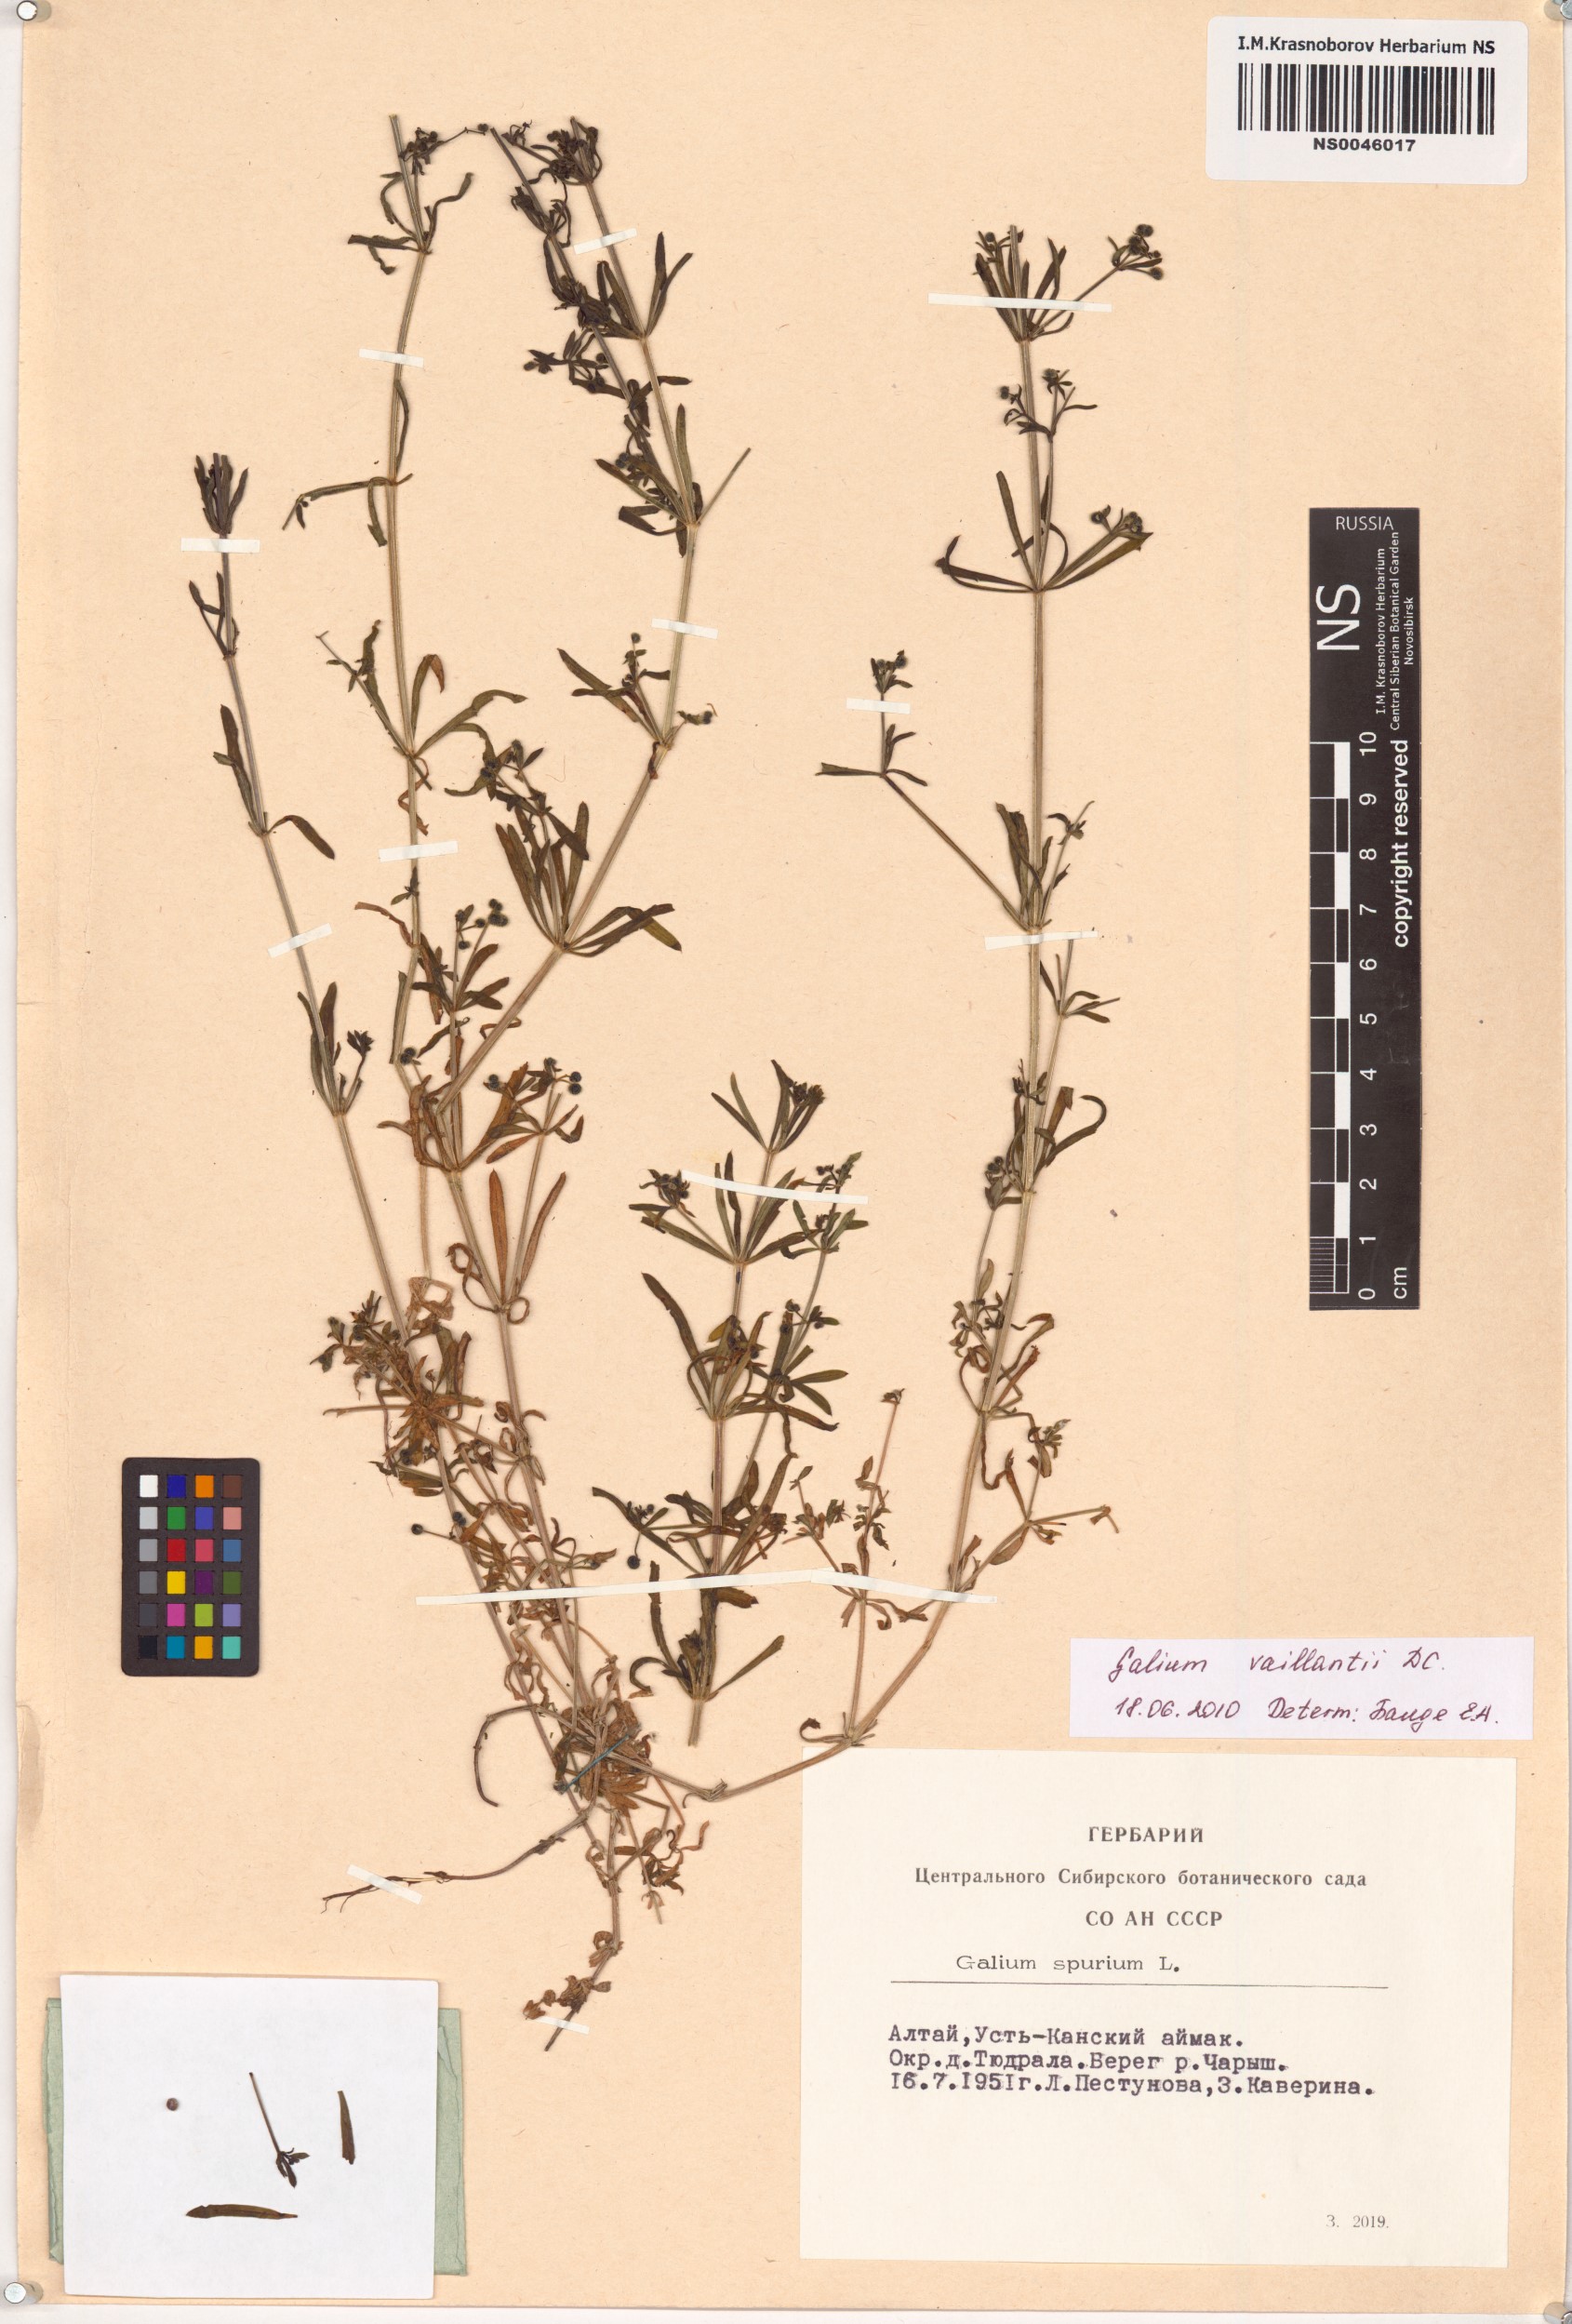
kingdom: Plantae
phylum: Tracheophyta
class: Magnoliopsida
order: Gentianales
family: Rubiaceae
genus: Galium
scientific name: Galium spurium
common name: False cleavers
